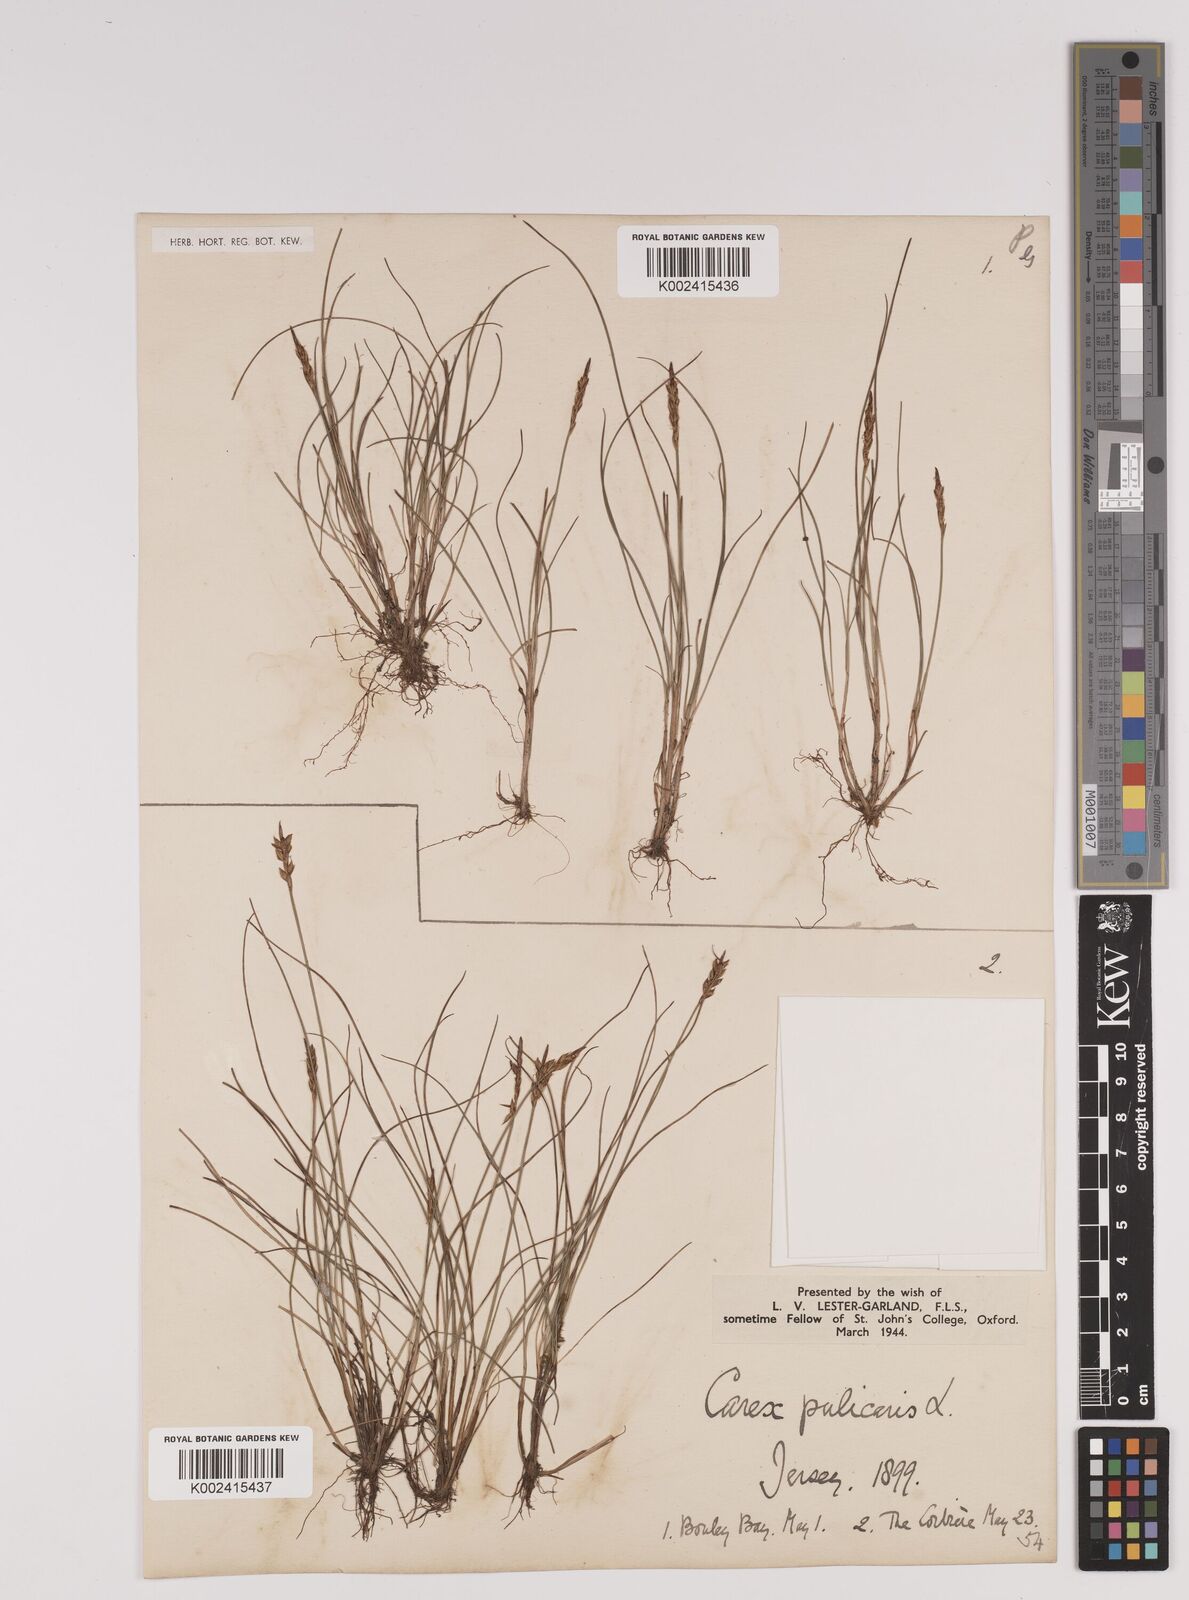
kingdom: Plantae
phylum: Tracheophyta
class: Liliopsida
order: Poales
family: Cyperaceae
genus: Carex
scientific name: Carex pulicaris
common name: Flea sedge
